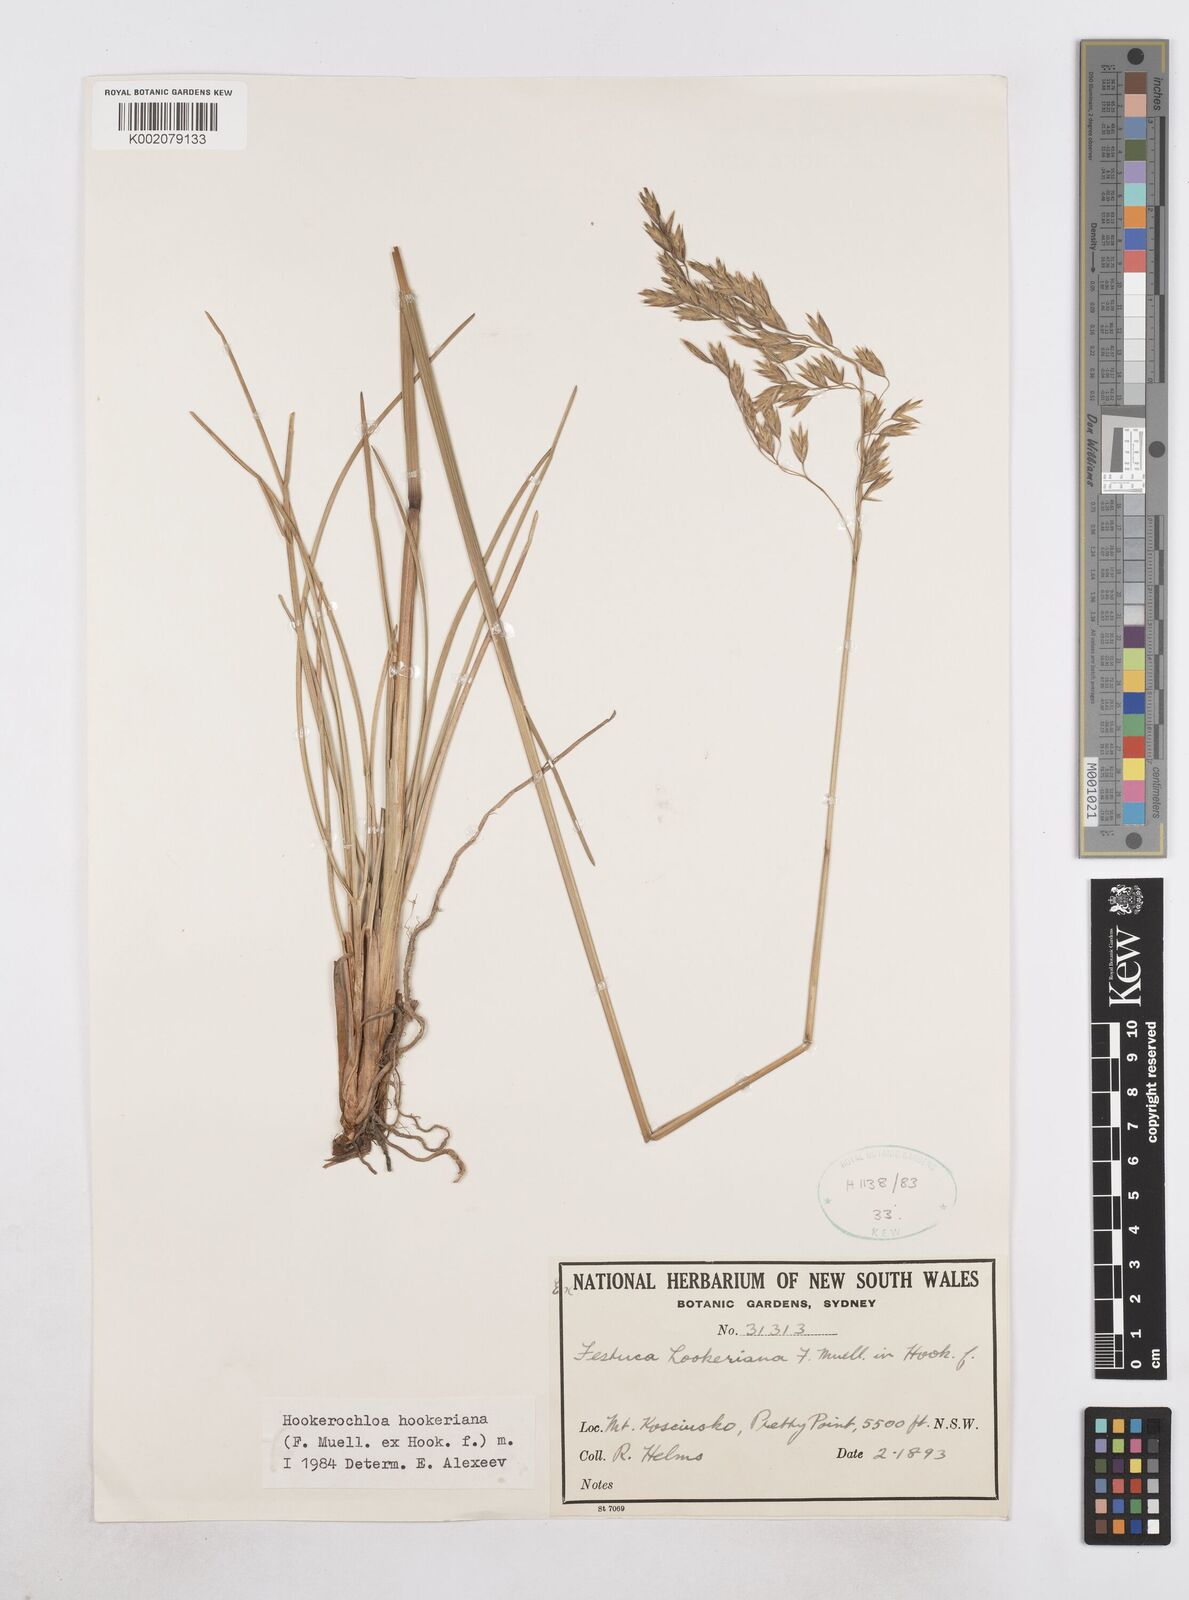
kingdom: Plantae
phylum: Tracheophyta
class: Liliopsida
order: Poales
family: Poaceae
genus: Hookerochloa
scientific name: Hookerochloa hookeriana
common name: Hooker's-fescue
